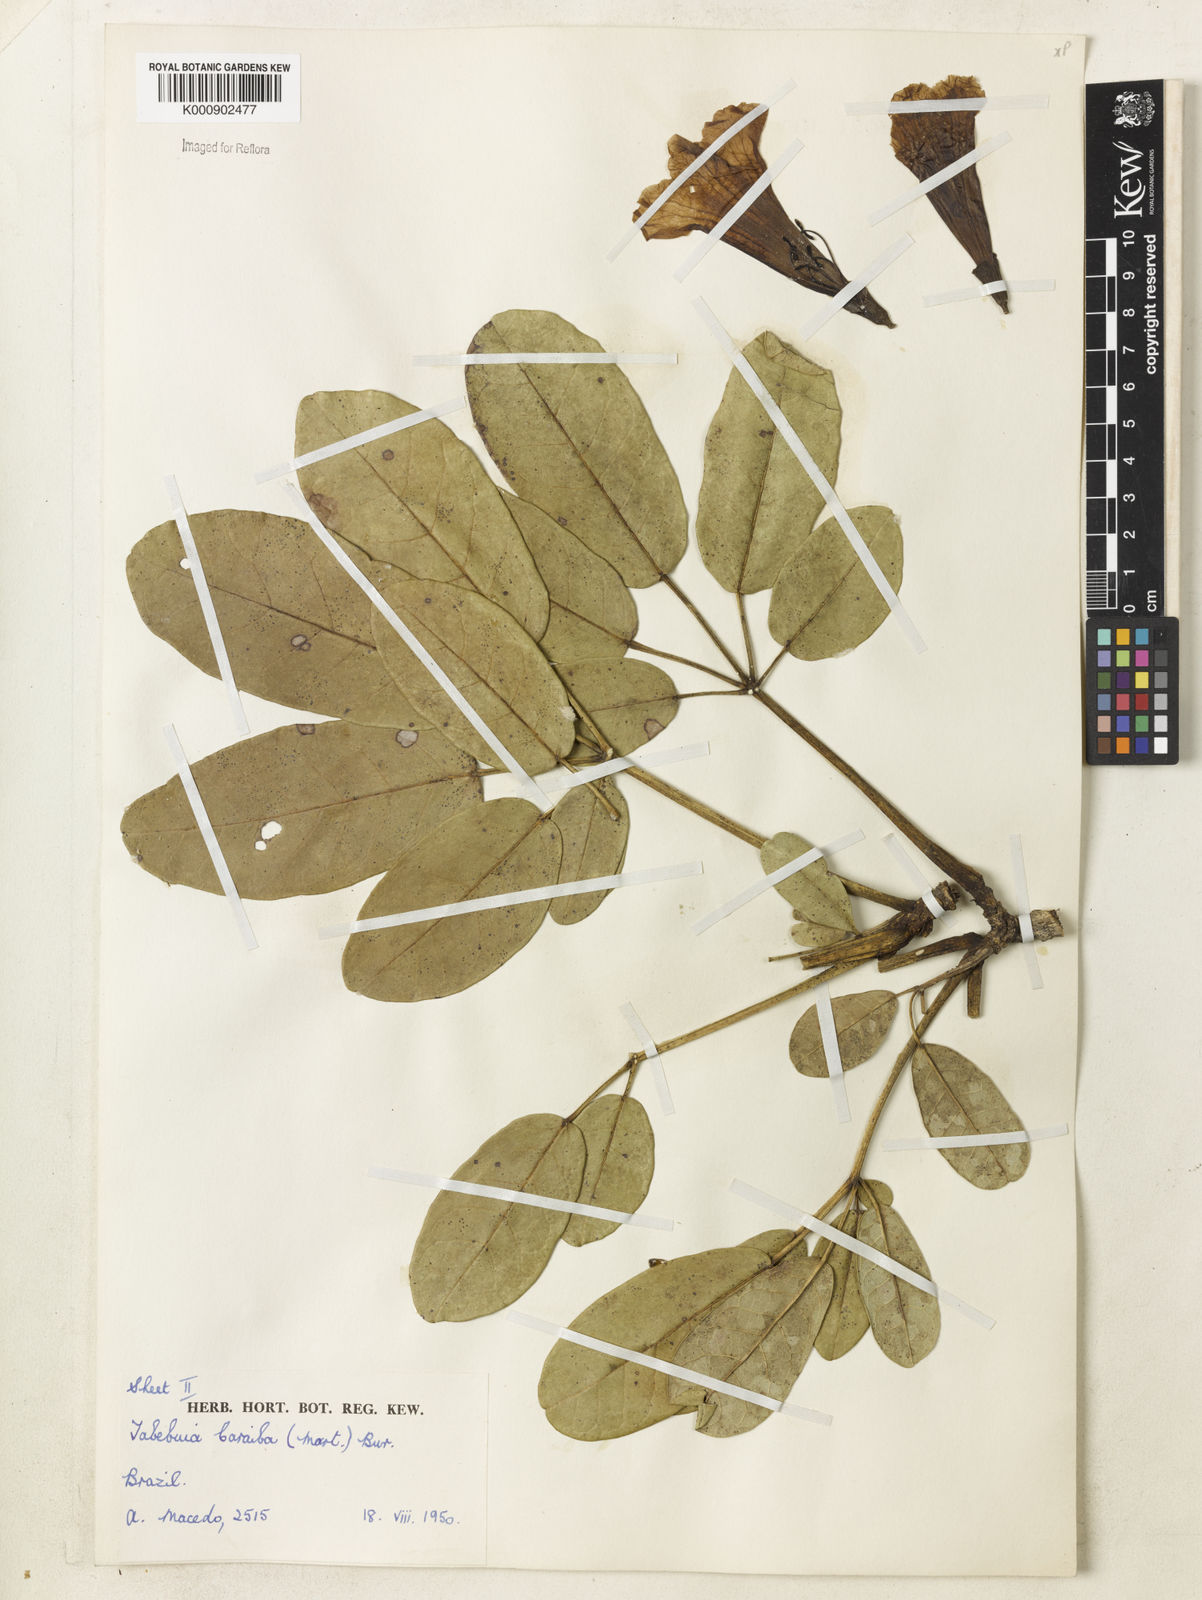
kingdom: Plantae
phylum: Tracheophyta
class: Magnoliopsida
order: Lamiales
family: Bignoniaceae
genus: Tabebuia
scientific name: Tabebuia aurea
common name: Caribbean trumpet-tree
